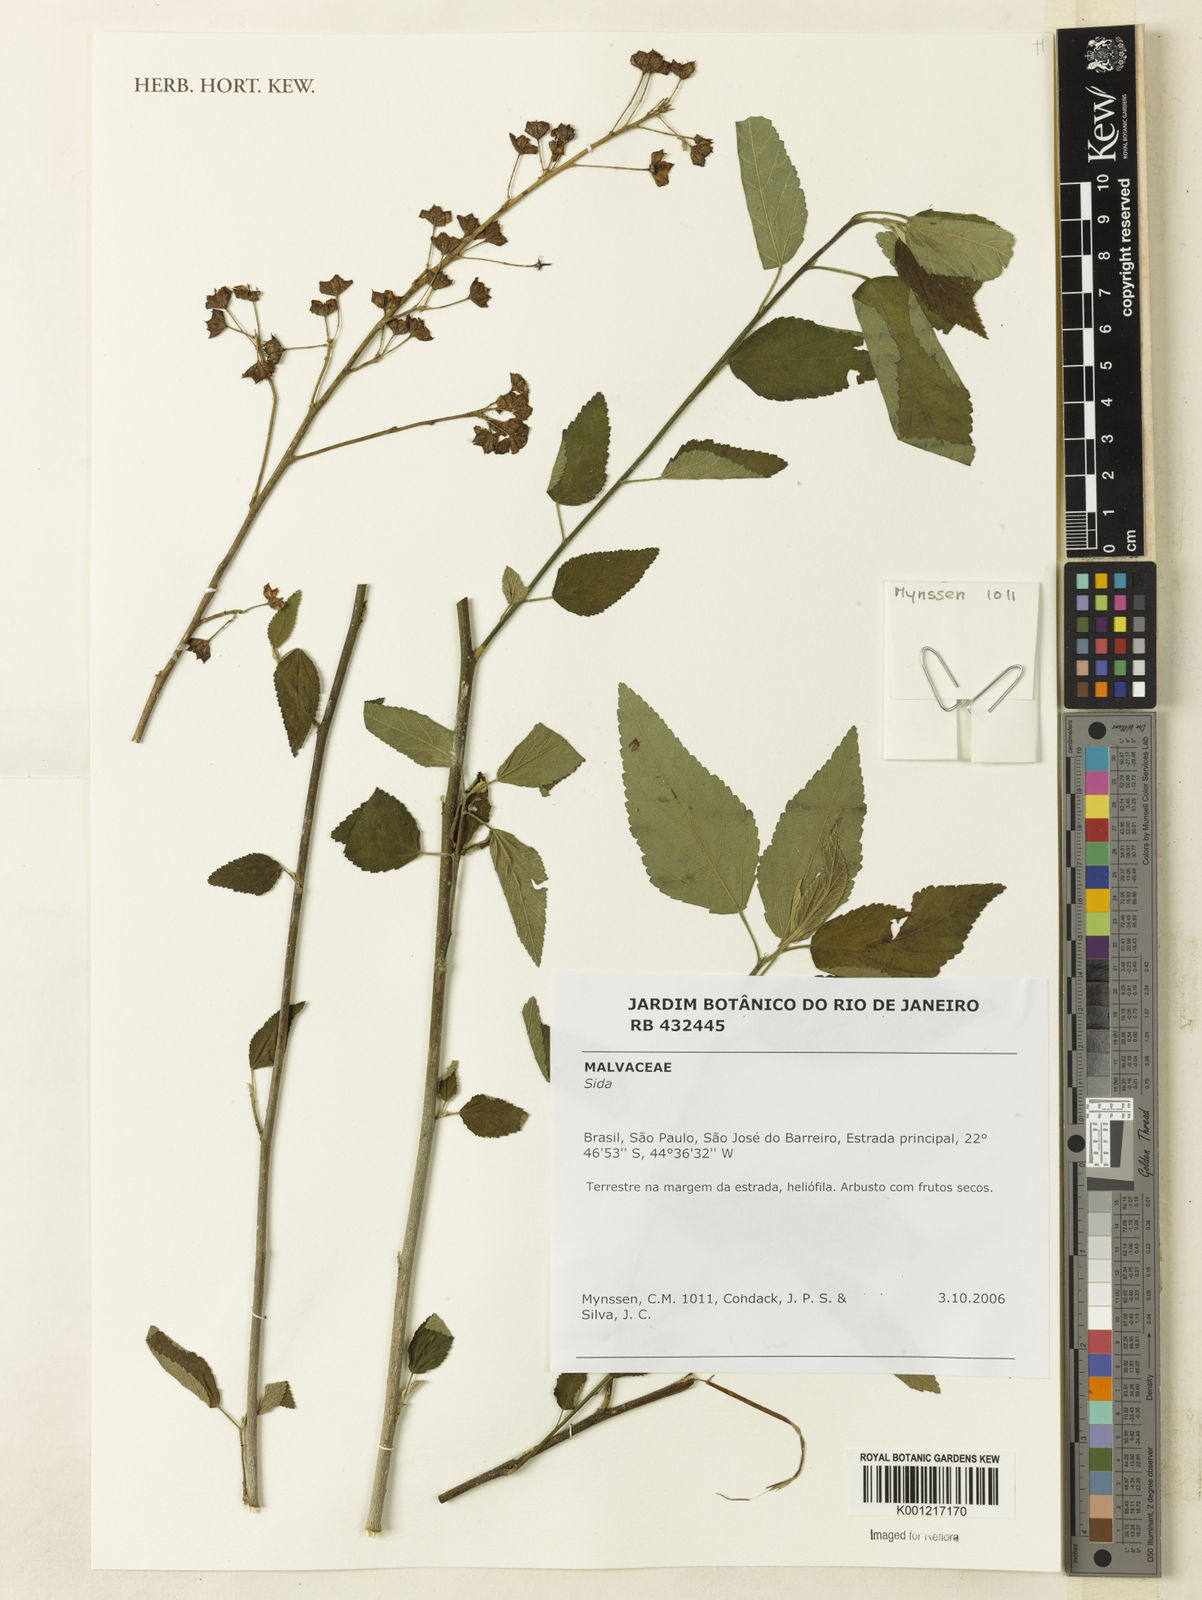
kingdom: Plantae
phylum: Tracheophyta
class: Magnoliopsida
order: Malvales
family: Malvaceae
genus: Sida
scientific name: Sida
